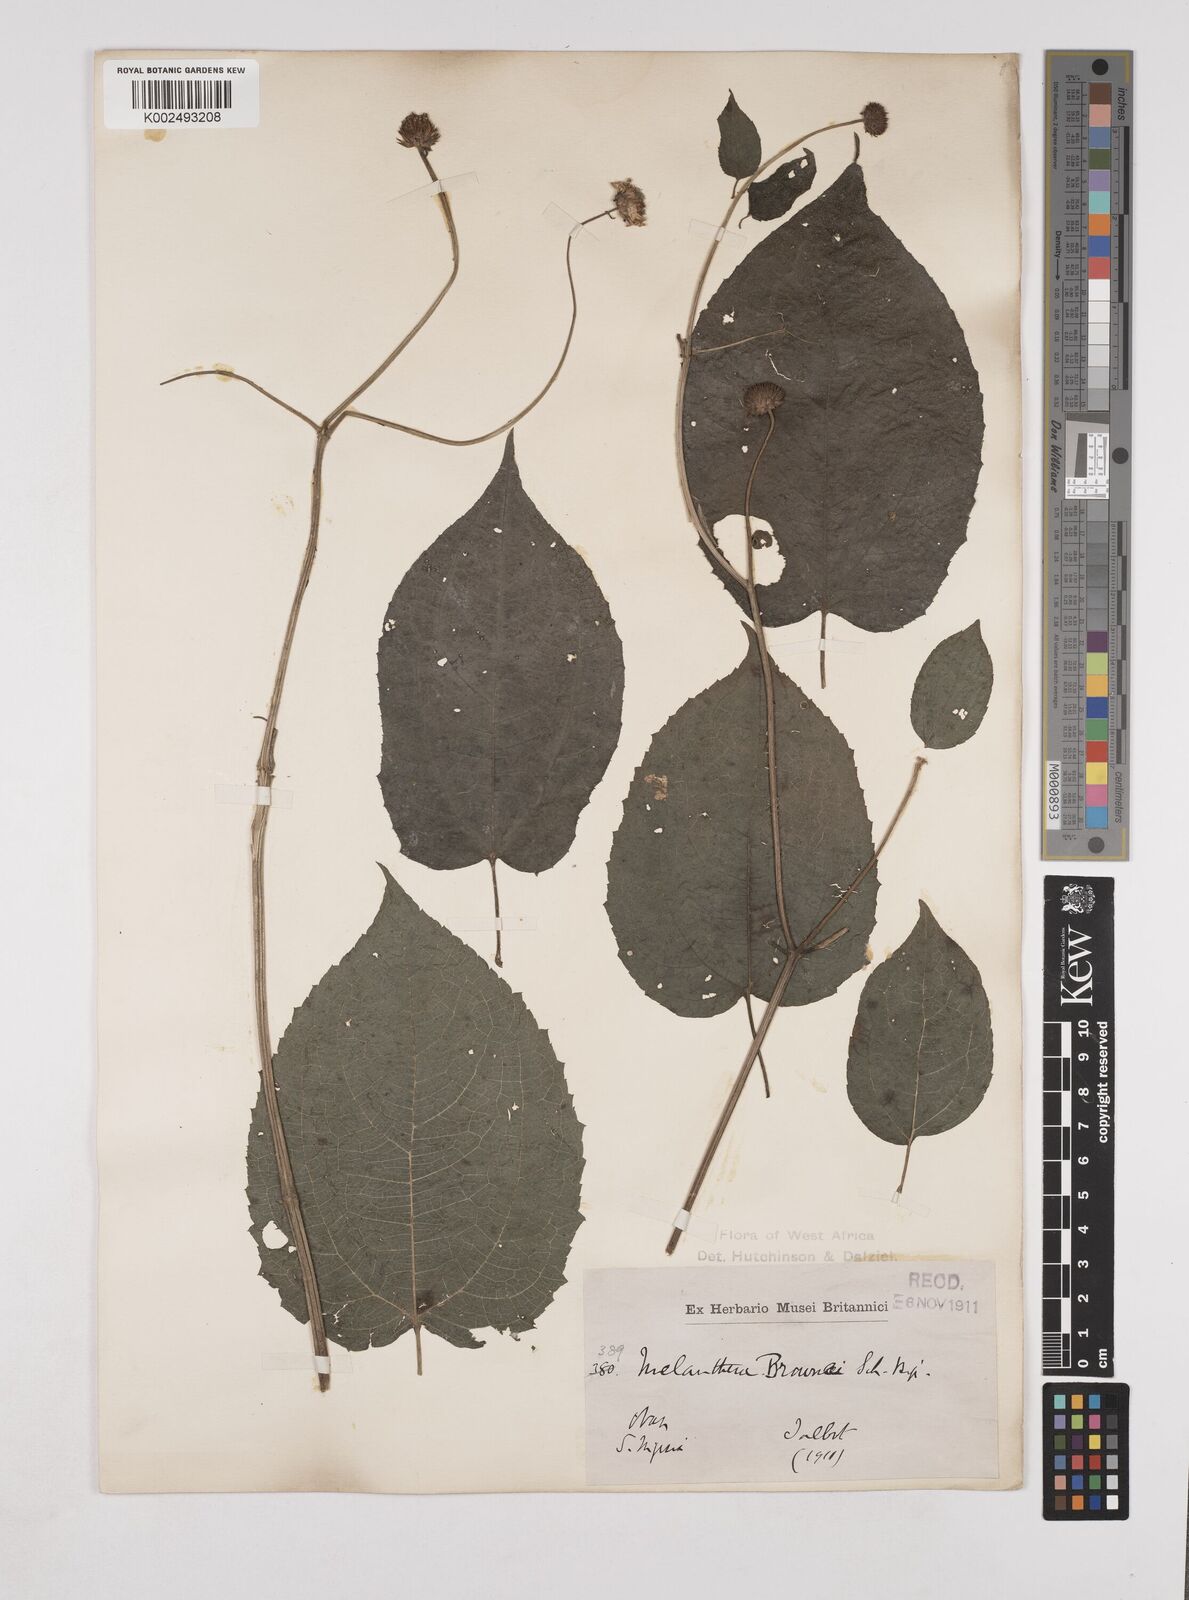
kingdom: Plantae
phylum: Tracheophyta
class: Magnoliopsida
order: Asterales
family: Asteraceae
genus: Lipotriche
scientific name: Lipotriche scandens
